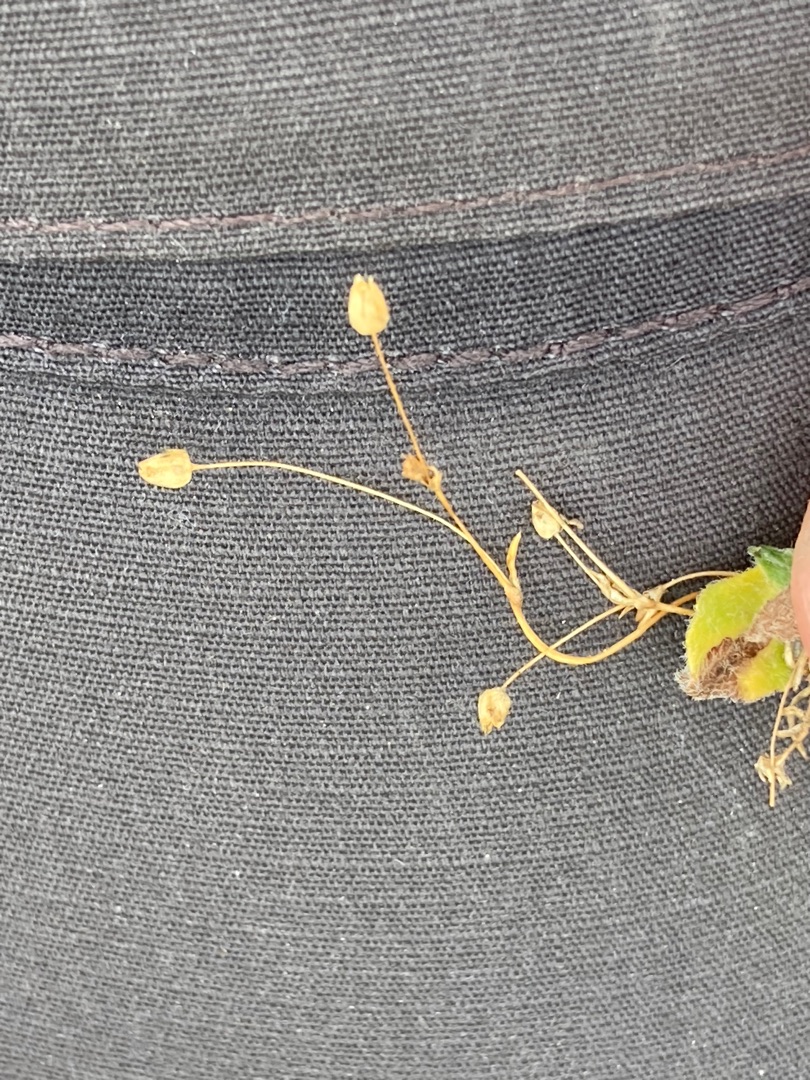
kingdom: Plantae
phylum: Tracheophyta
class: Magnoliopsida
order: Caryophyllales
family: Caryophyllaceae
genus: Sagina
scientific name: Sagina procumbens
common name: Almindelig firling
